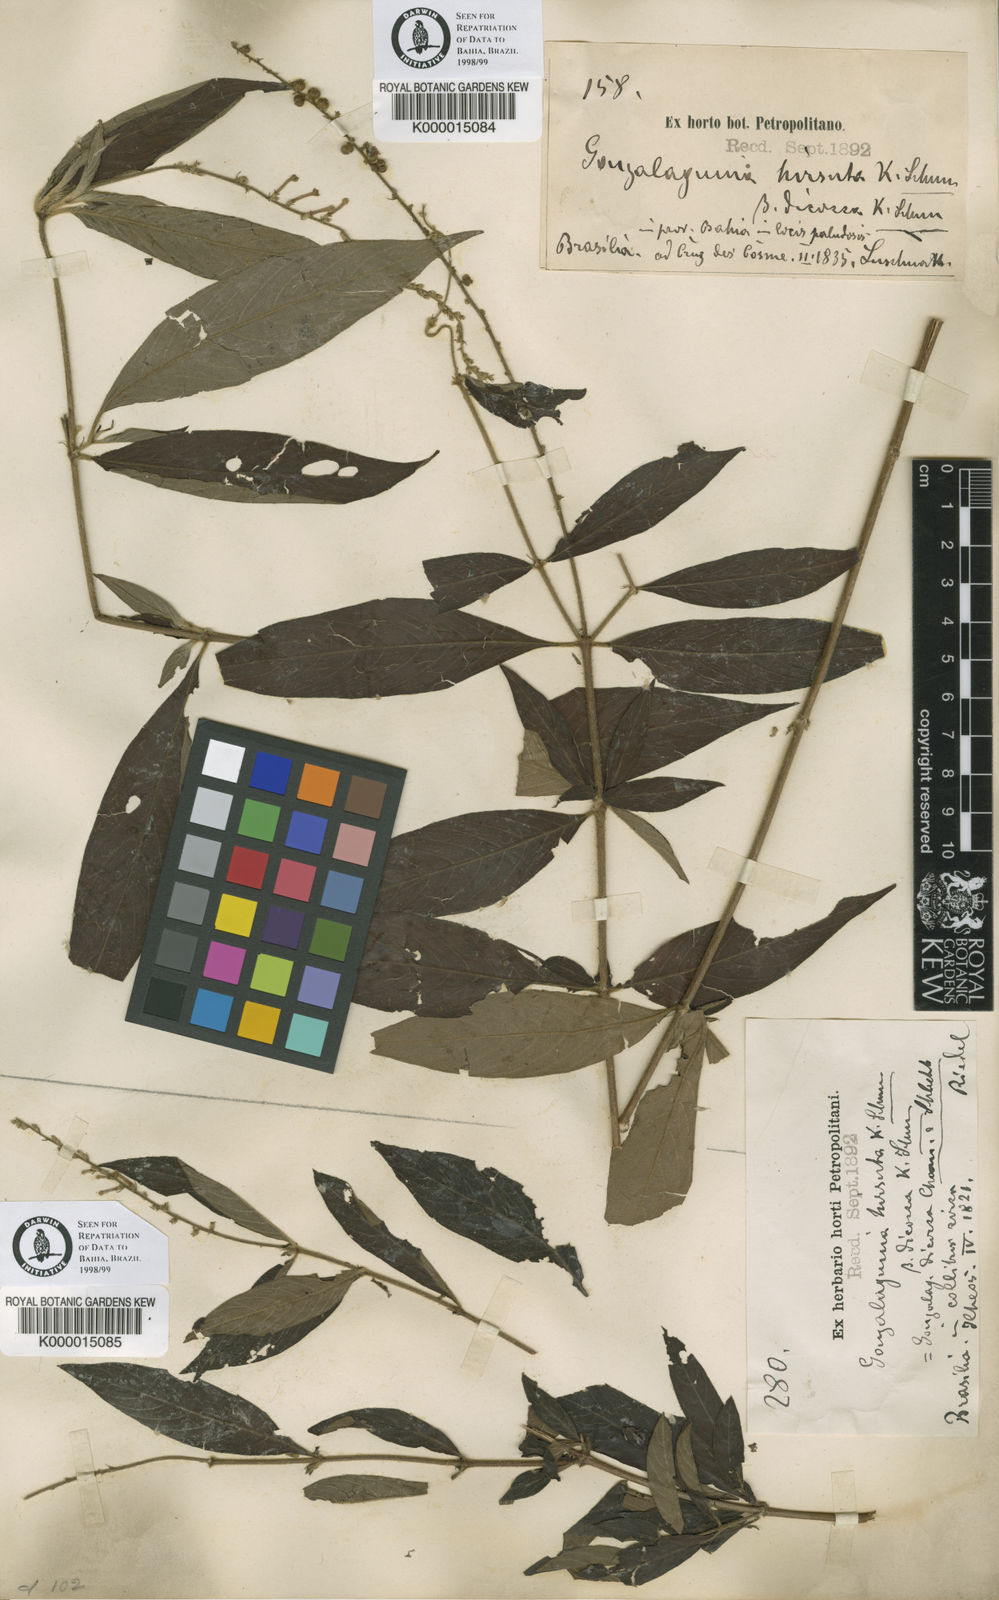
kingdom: Plantae
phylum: Tracheophyta
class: Magnoliopsida
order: Gentianales
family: Rubiaceae
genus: Gonzalagunia
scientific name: Gonzalagunia dicocca
